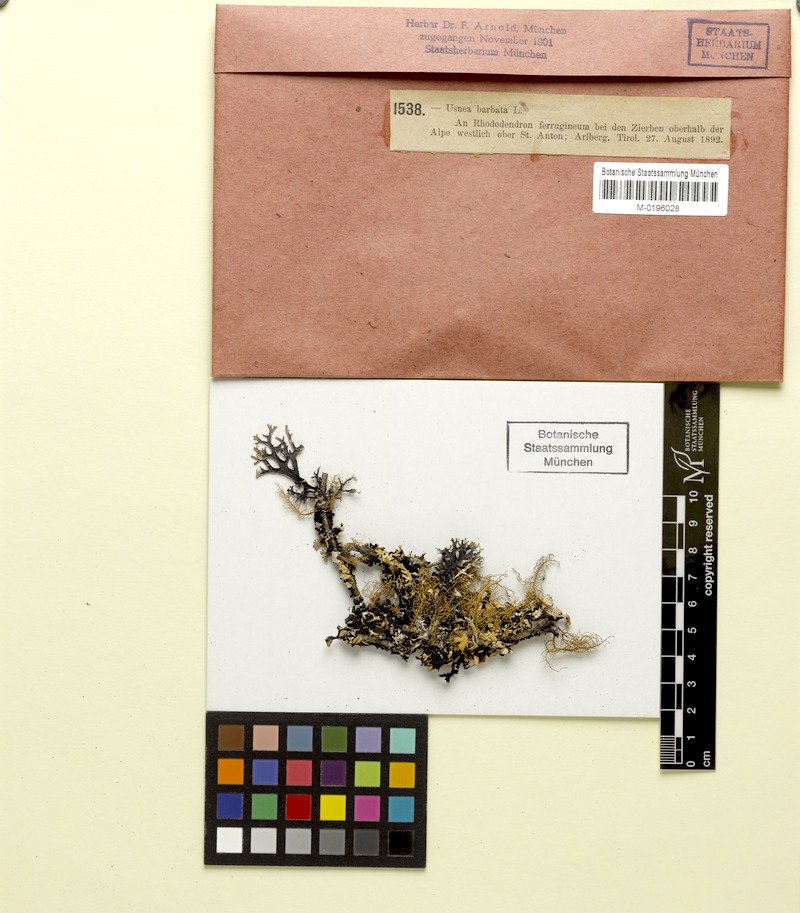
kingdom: Fungi
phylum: Ascomycota
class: Lecanoromycetes
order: Lecanorales
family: Parmeliaceae
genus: Usnea
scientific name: Usnea barbata
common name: Old man's beard lichen
